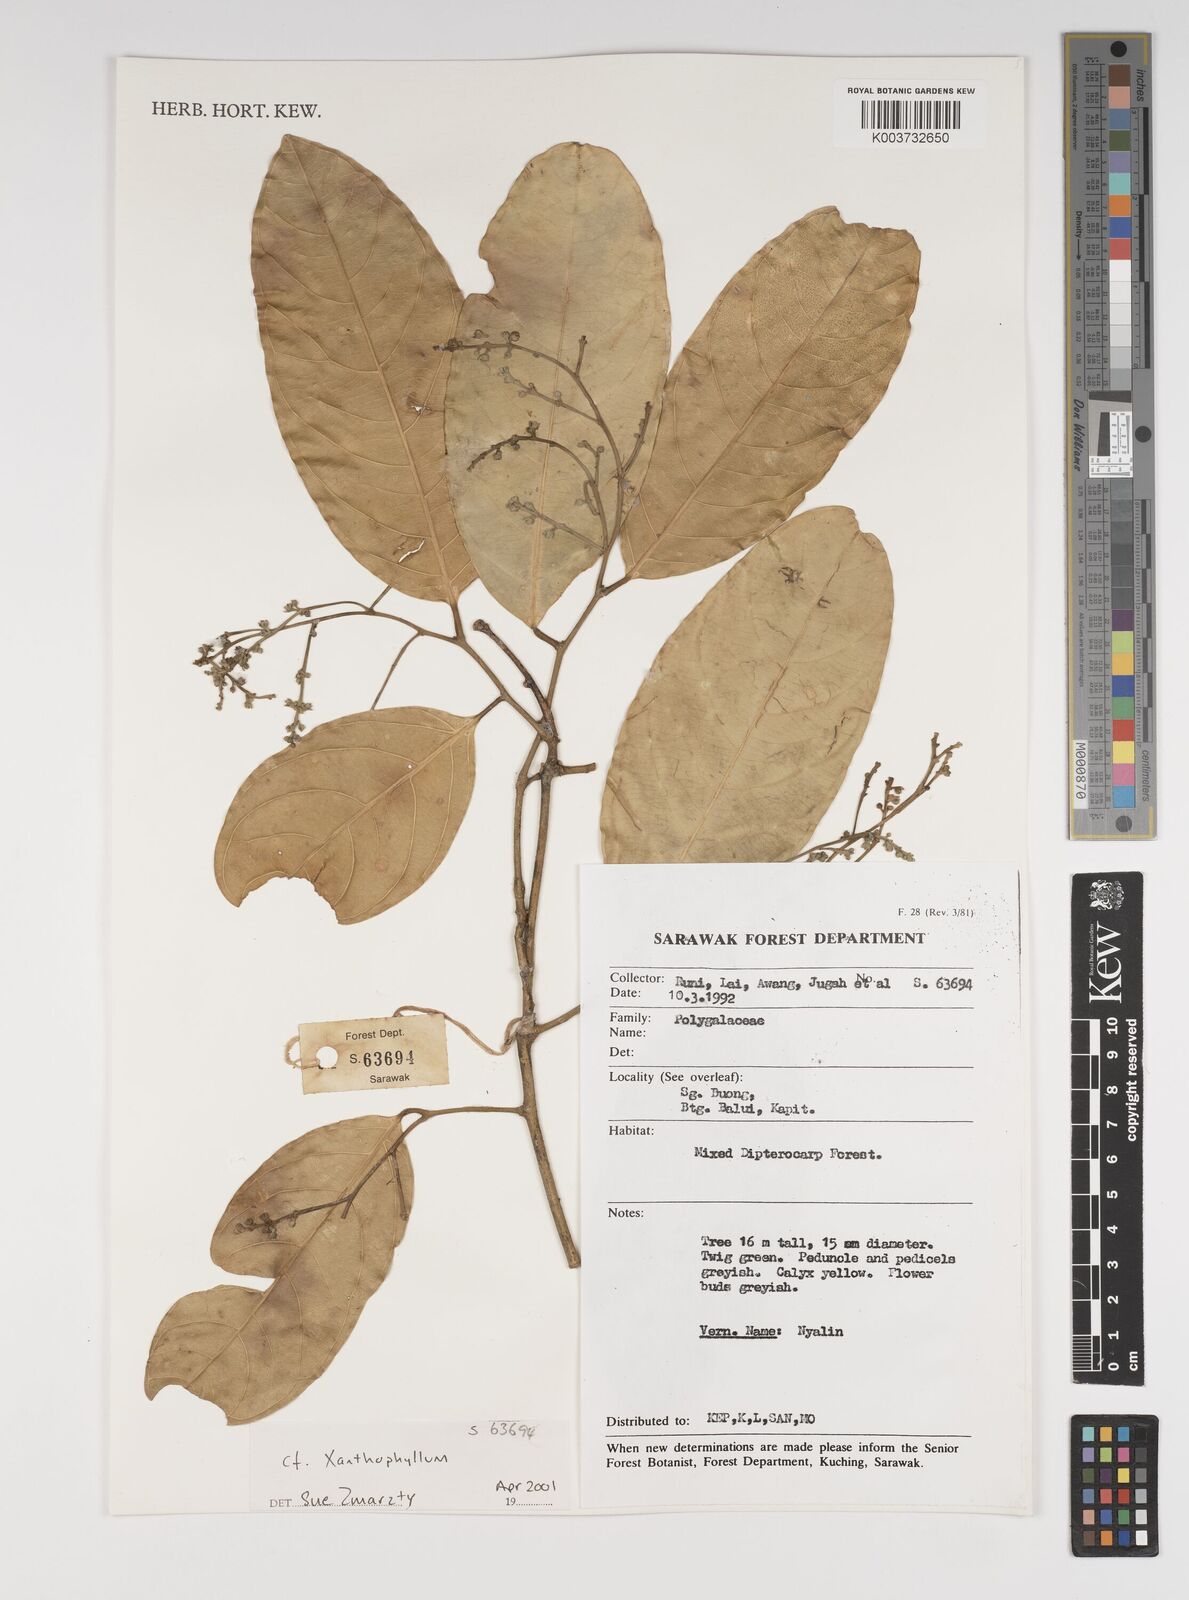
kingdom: Plantae
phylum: Tracheophyta
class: Magnoliopsida
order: Fabales
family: Polygalaceae
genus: Xanthophyllum
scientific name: Xanthophyllum
